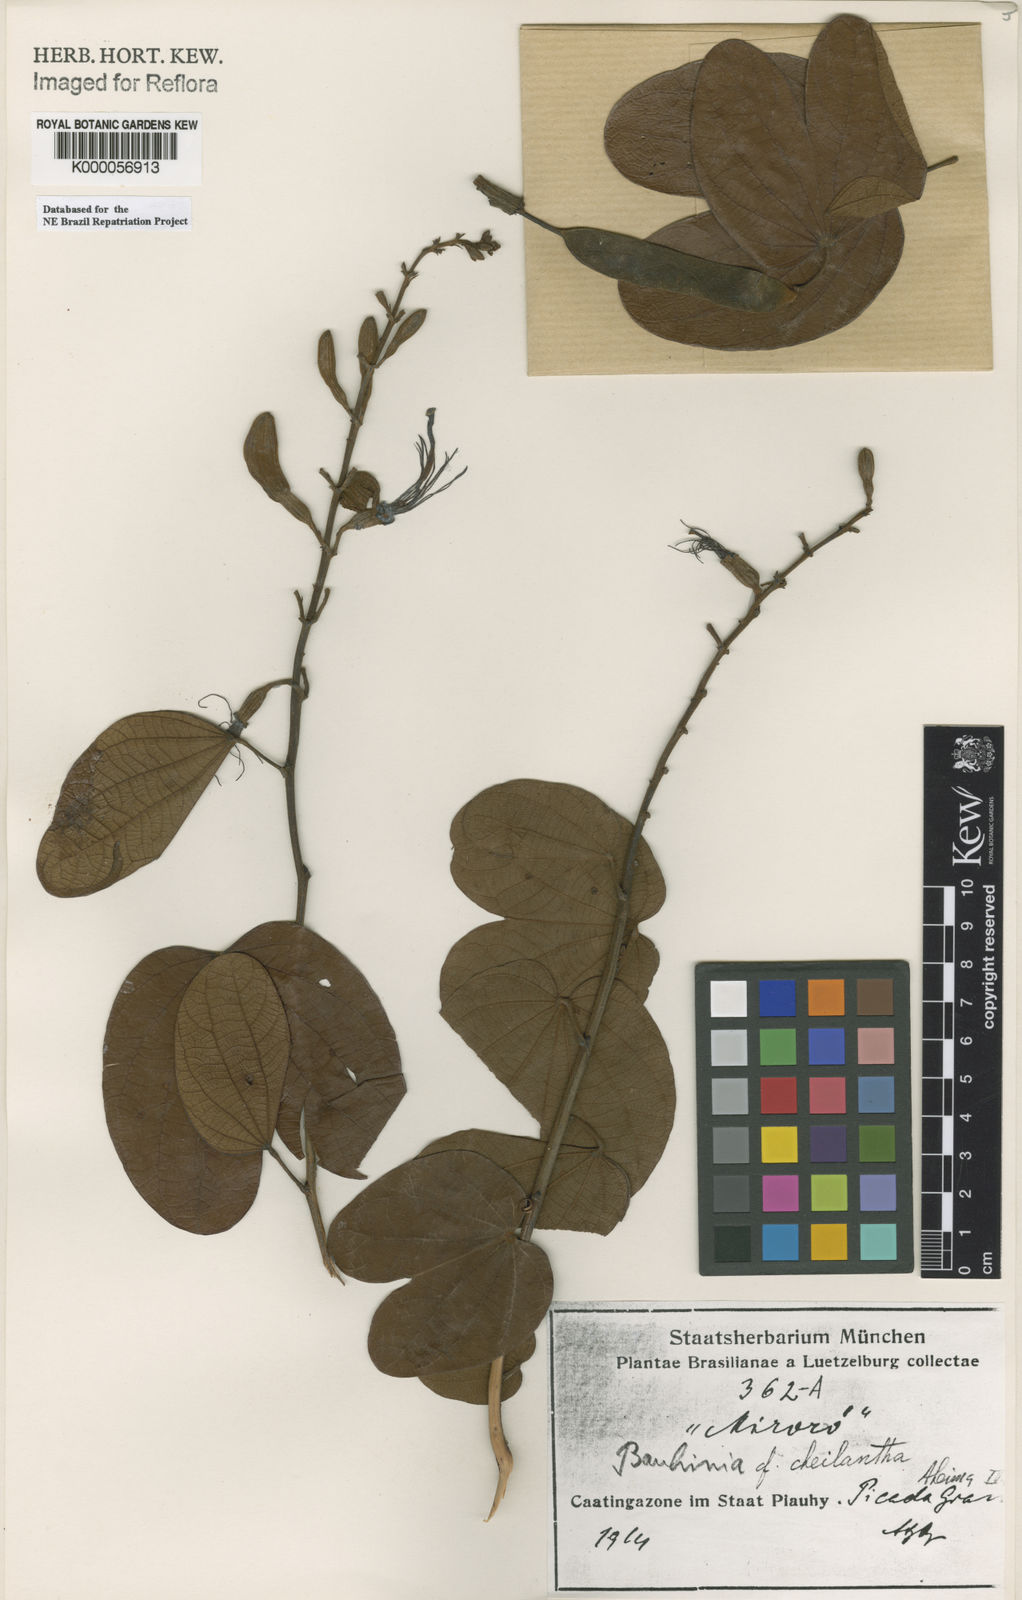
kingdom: Plantae
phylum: Tracheophyta
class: Magnoliopsida
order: Fabales
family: Fabaceae
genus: Bauhinia
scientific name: Bauhinia cheilantha
